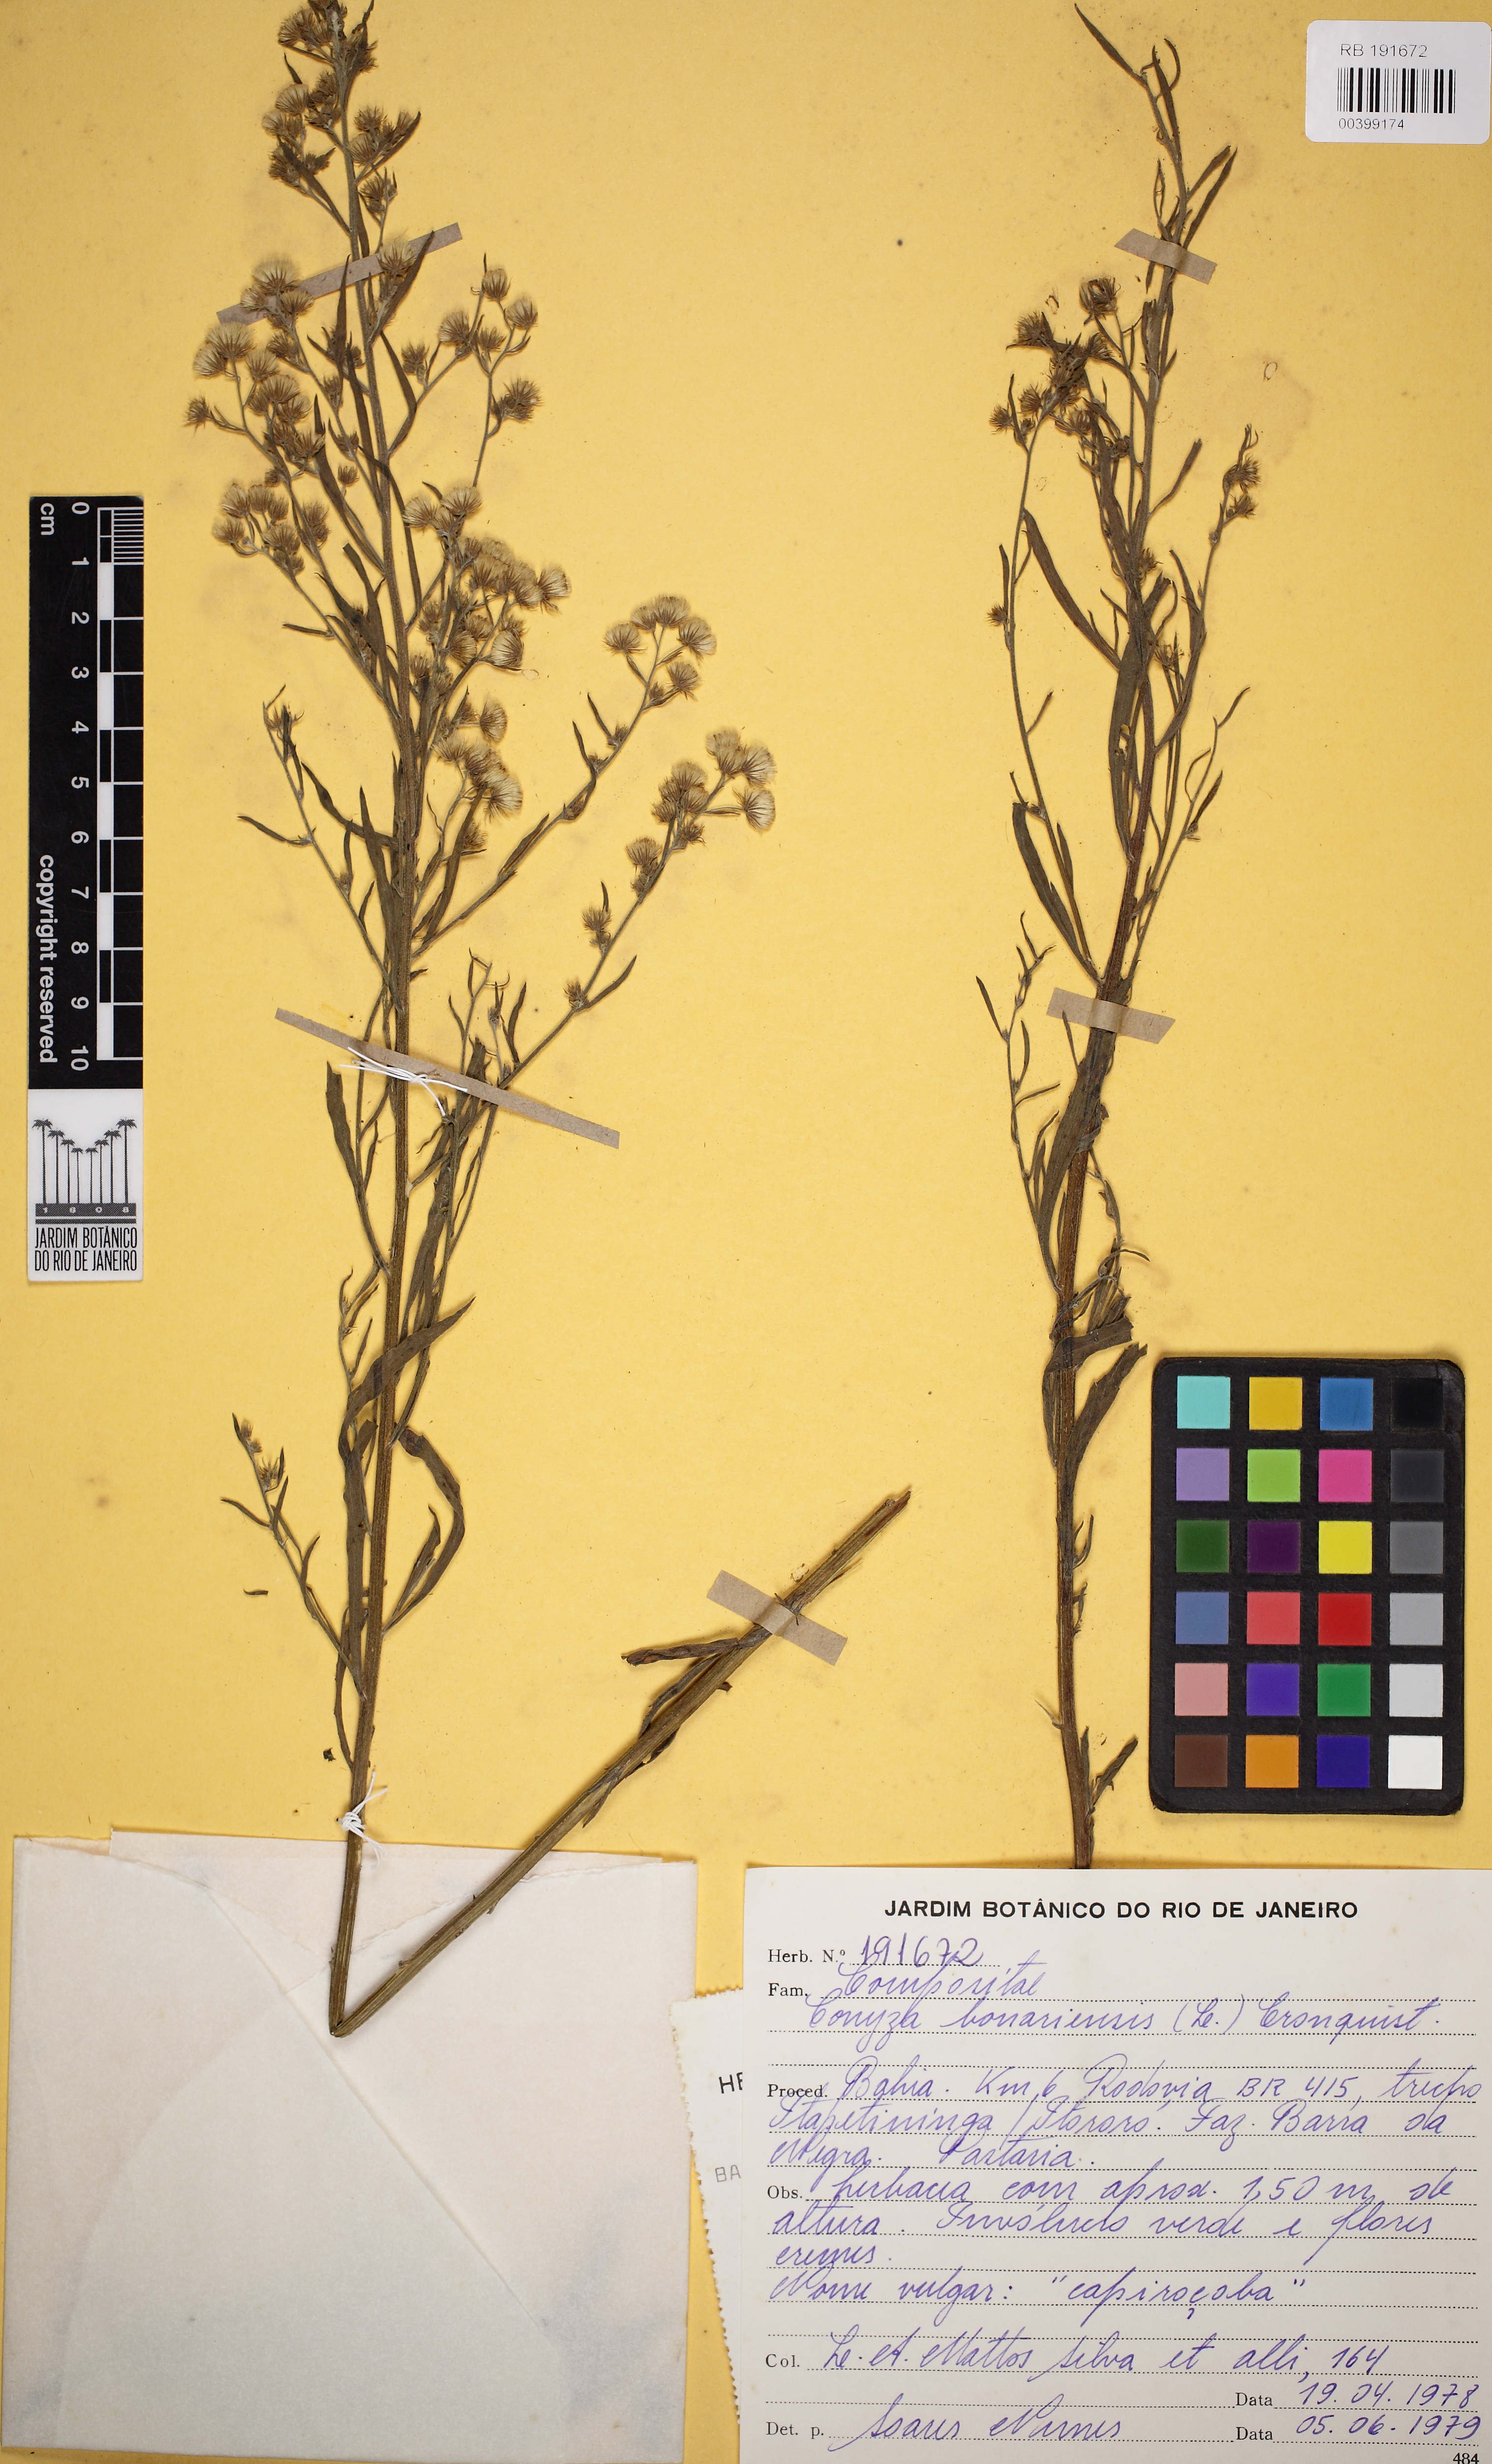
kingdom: Plantae
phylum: Tracheophyta
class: Magnoliopsida
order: Asterales
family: Asteraceae
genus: Erigeron
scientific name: Erigeron bonariensis
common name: Argentine fleabane
